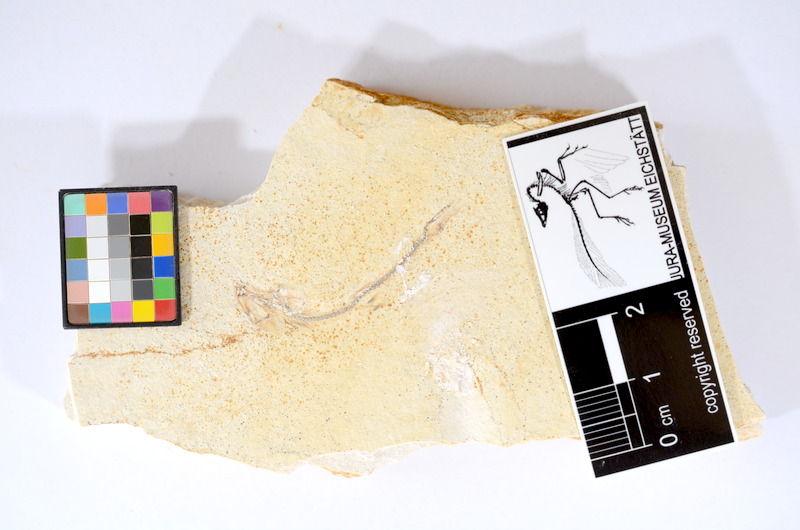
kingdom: Animalia
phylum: Chordata
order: Salmoniformes
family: Orthogonikleithridae
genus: Orthogonikleithrus
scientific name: Orthogonikleithrus hoelli
